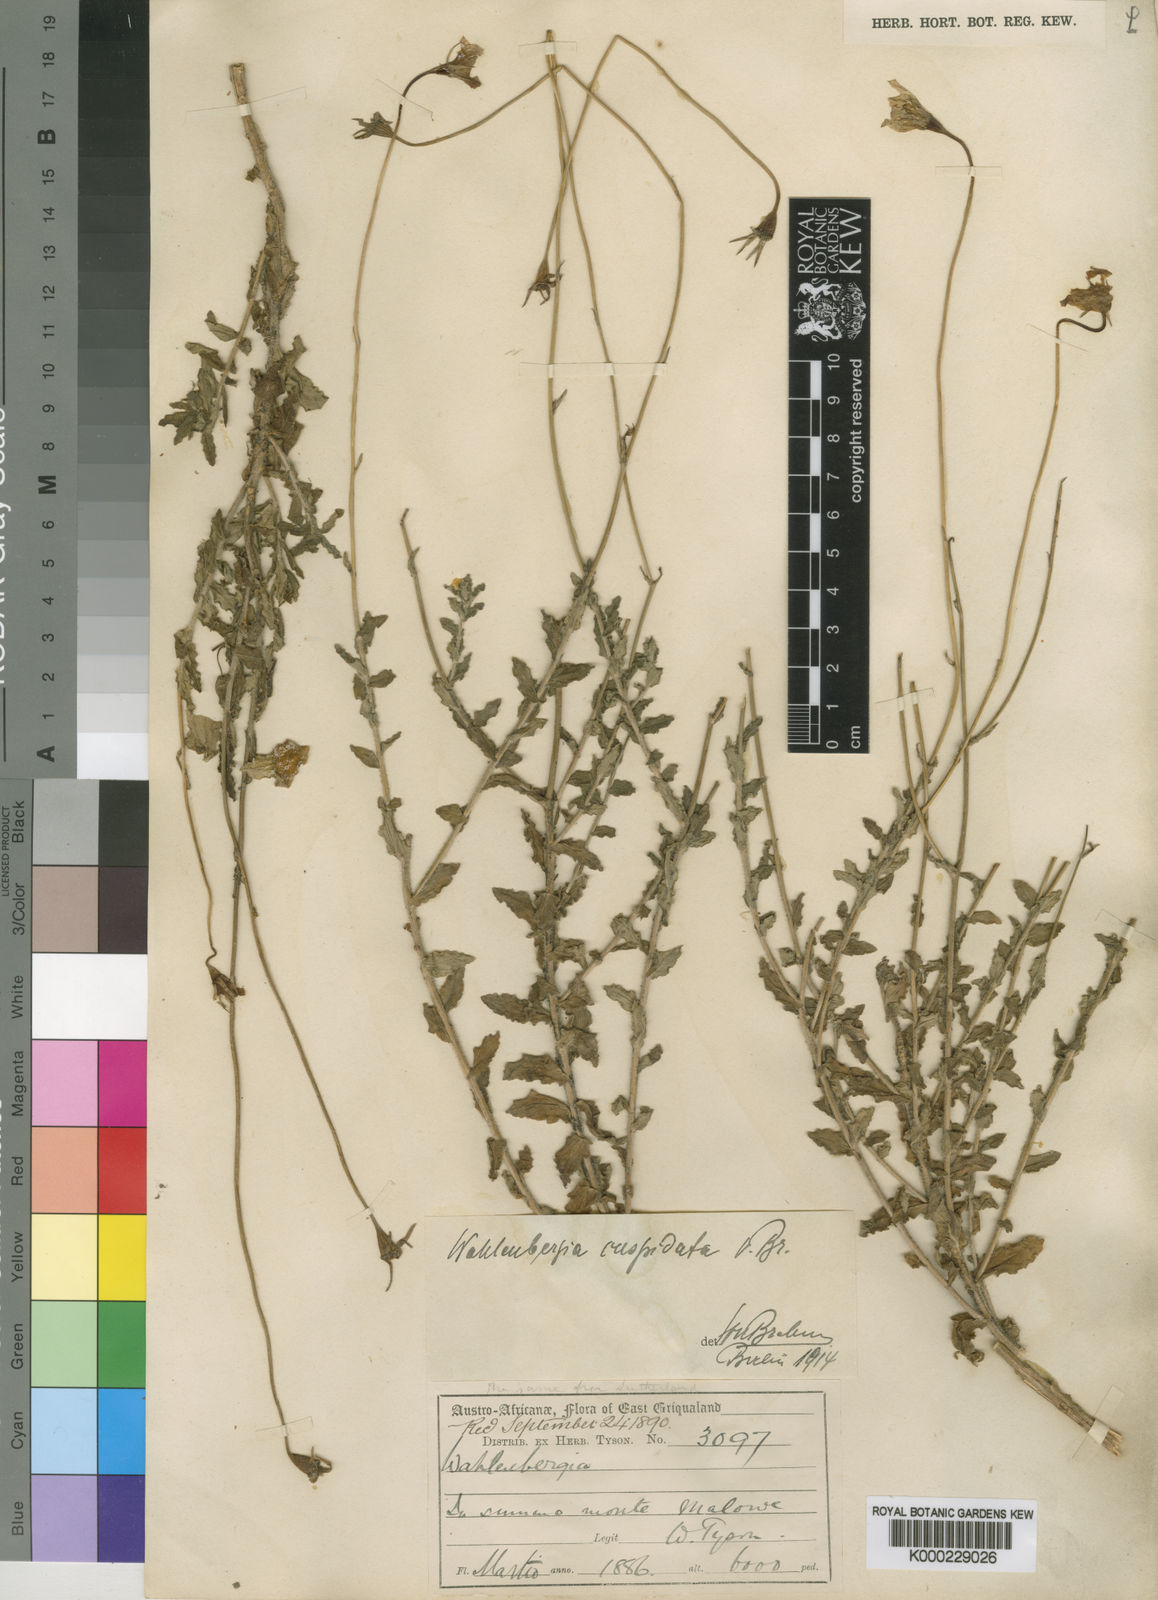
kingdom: Plantae
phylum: Tracheophyta
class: Magnoliopsida
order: Asterales
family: Campanulaceae
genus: Wahlenbergia
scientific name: Wahlenbergia cuspidata
